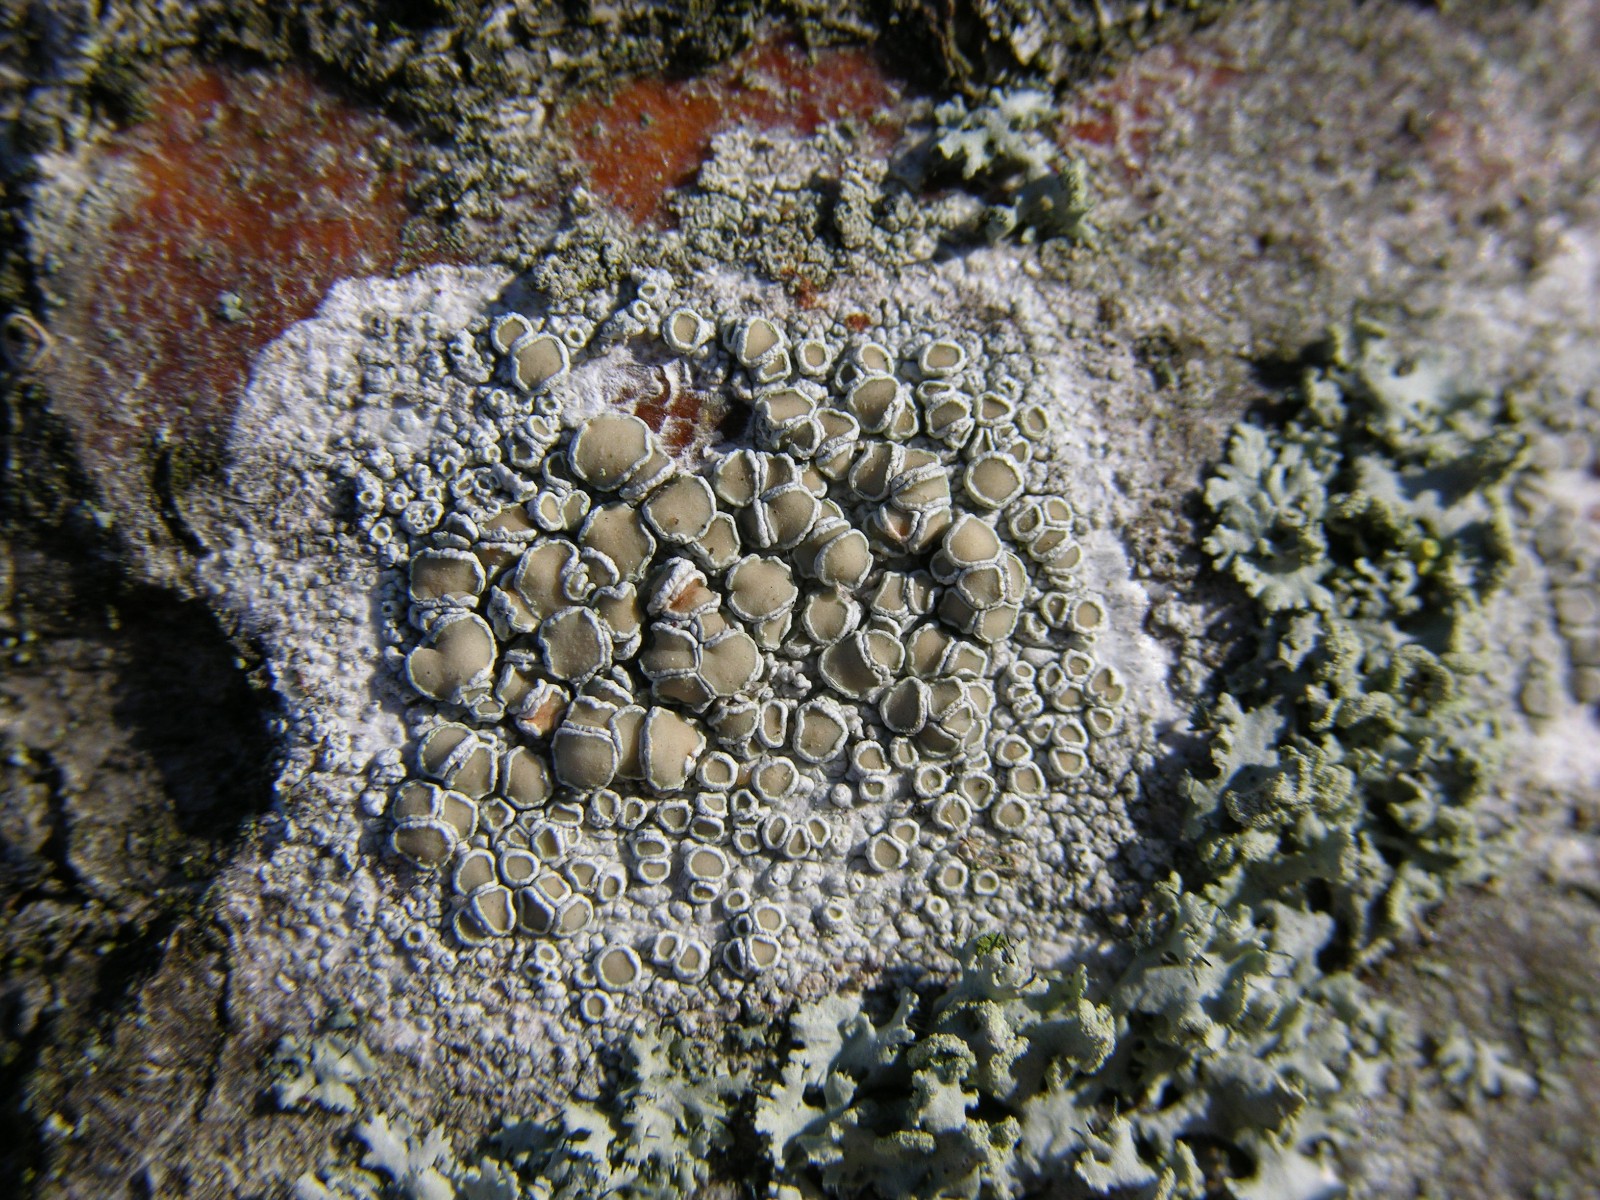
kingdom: Fungi
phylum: Ascomycota
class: Lecanoromycetes
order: Lecanorales
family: Lecanoraceae
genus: Lecanora
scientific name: Lecanora chlarotera
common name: brun kantskivelav
